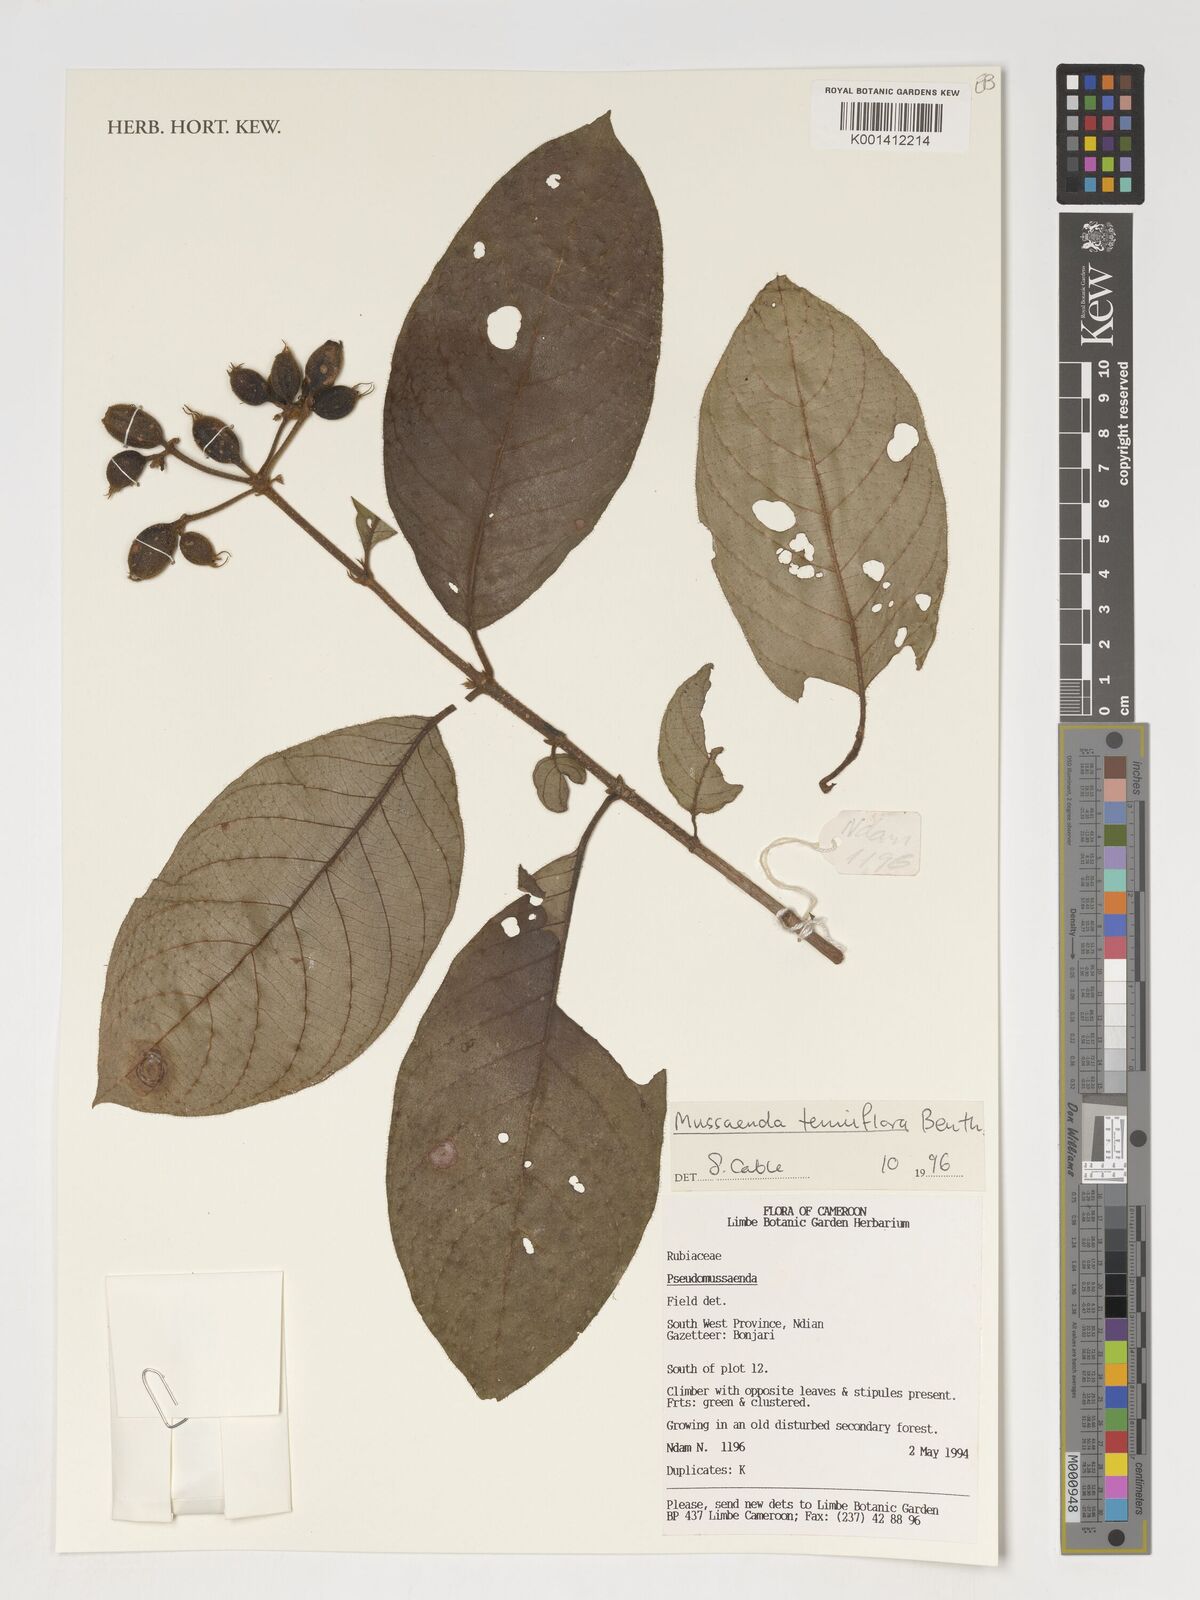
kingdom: Plantae
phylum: Tracheophyta
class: Magnoliopsida
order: Gentianales
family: Rubiaceae
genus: Mussaenda
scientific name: Mussaenda tenuiflora
